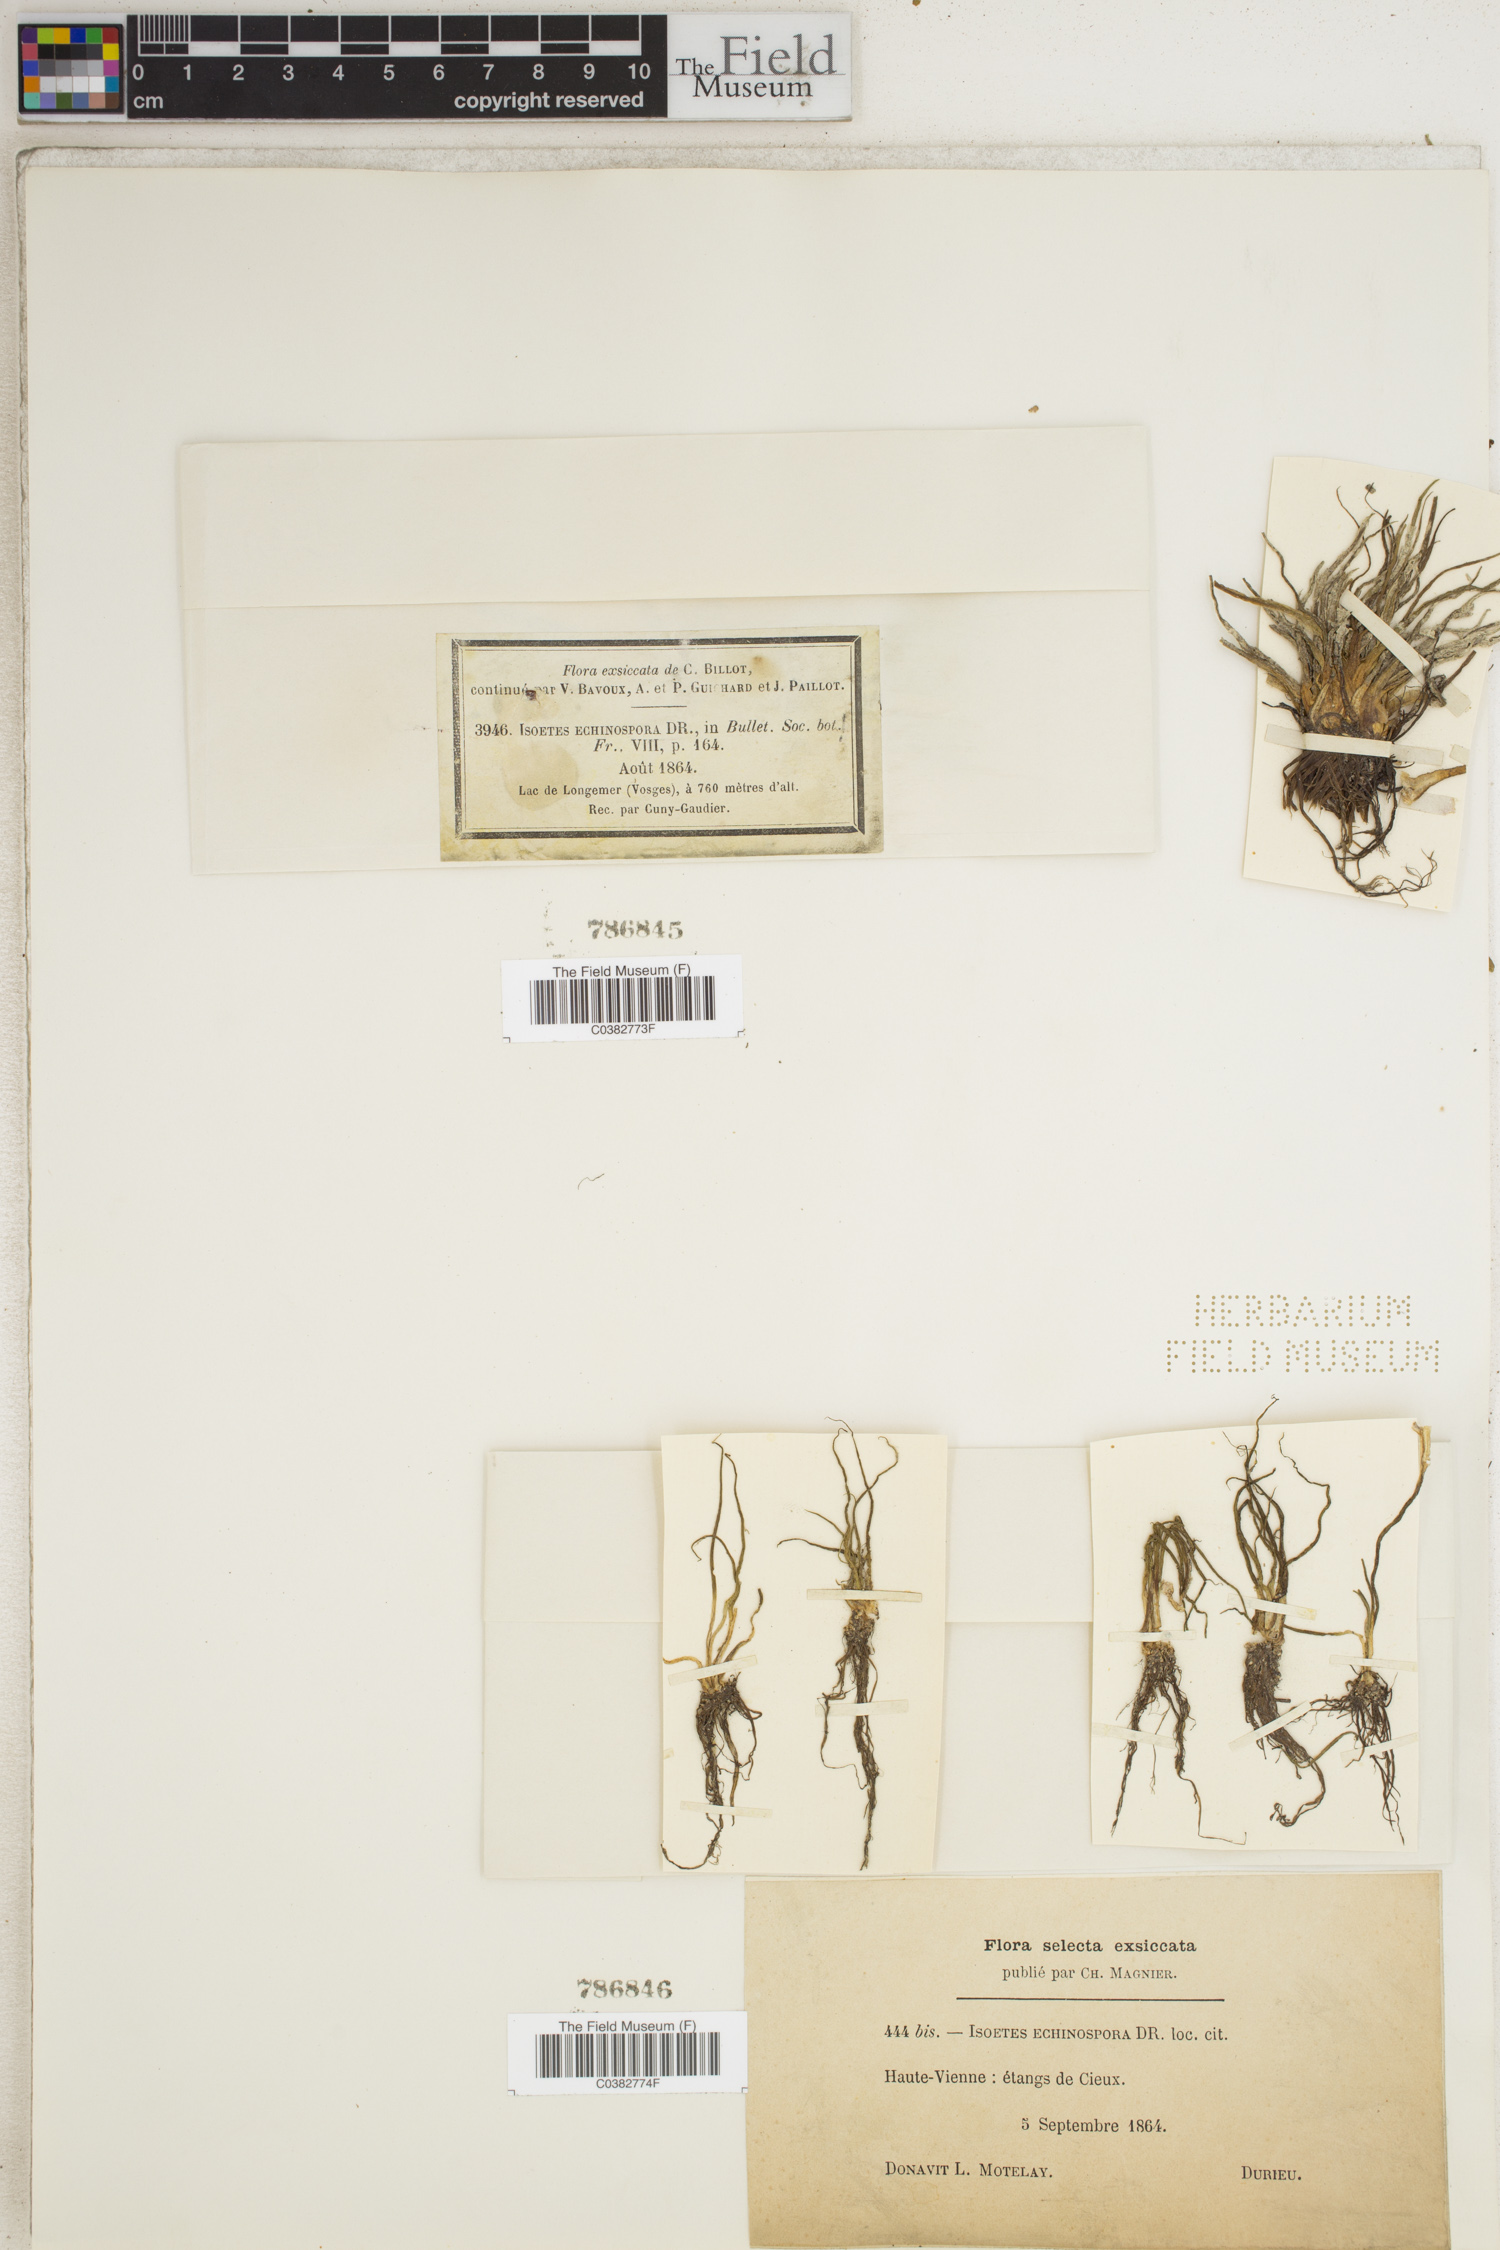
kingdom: Plantae
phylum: Tracheophyta
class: Lycopodiopsida
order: Isoetales
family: Isoetaceae
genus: Isoetes
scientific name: Isoetes echinospora
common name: Spring quillwort
